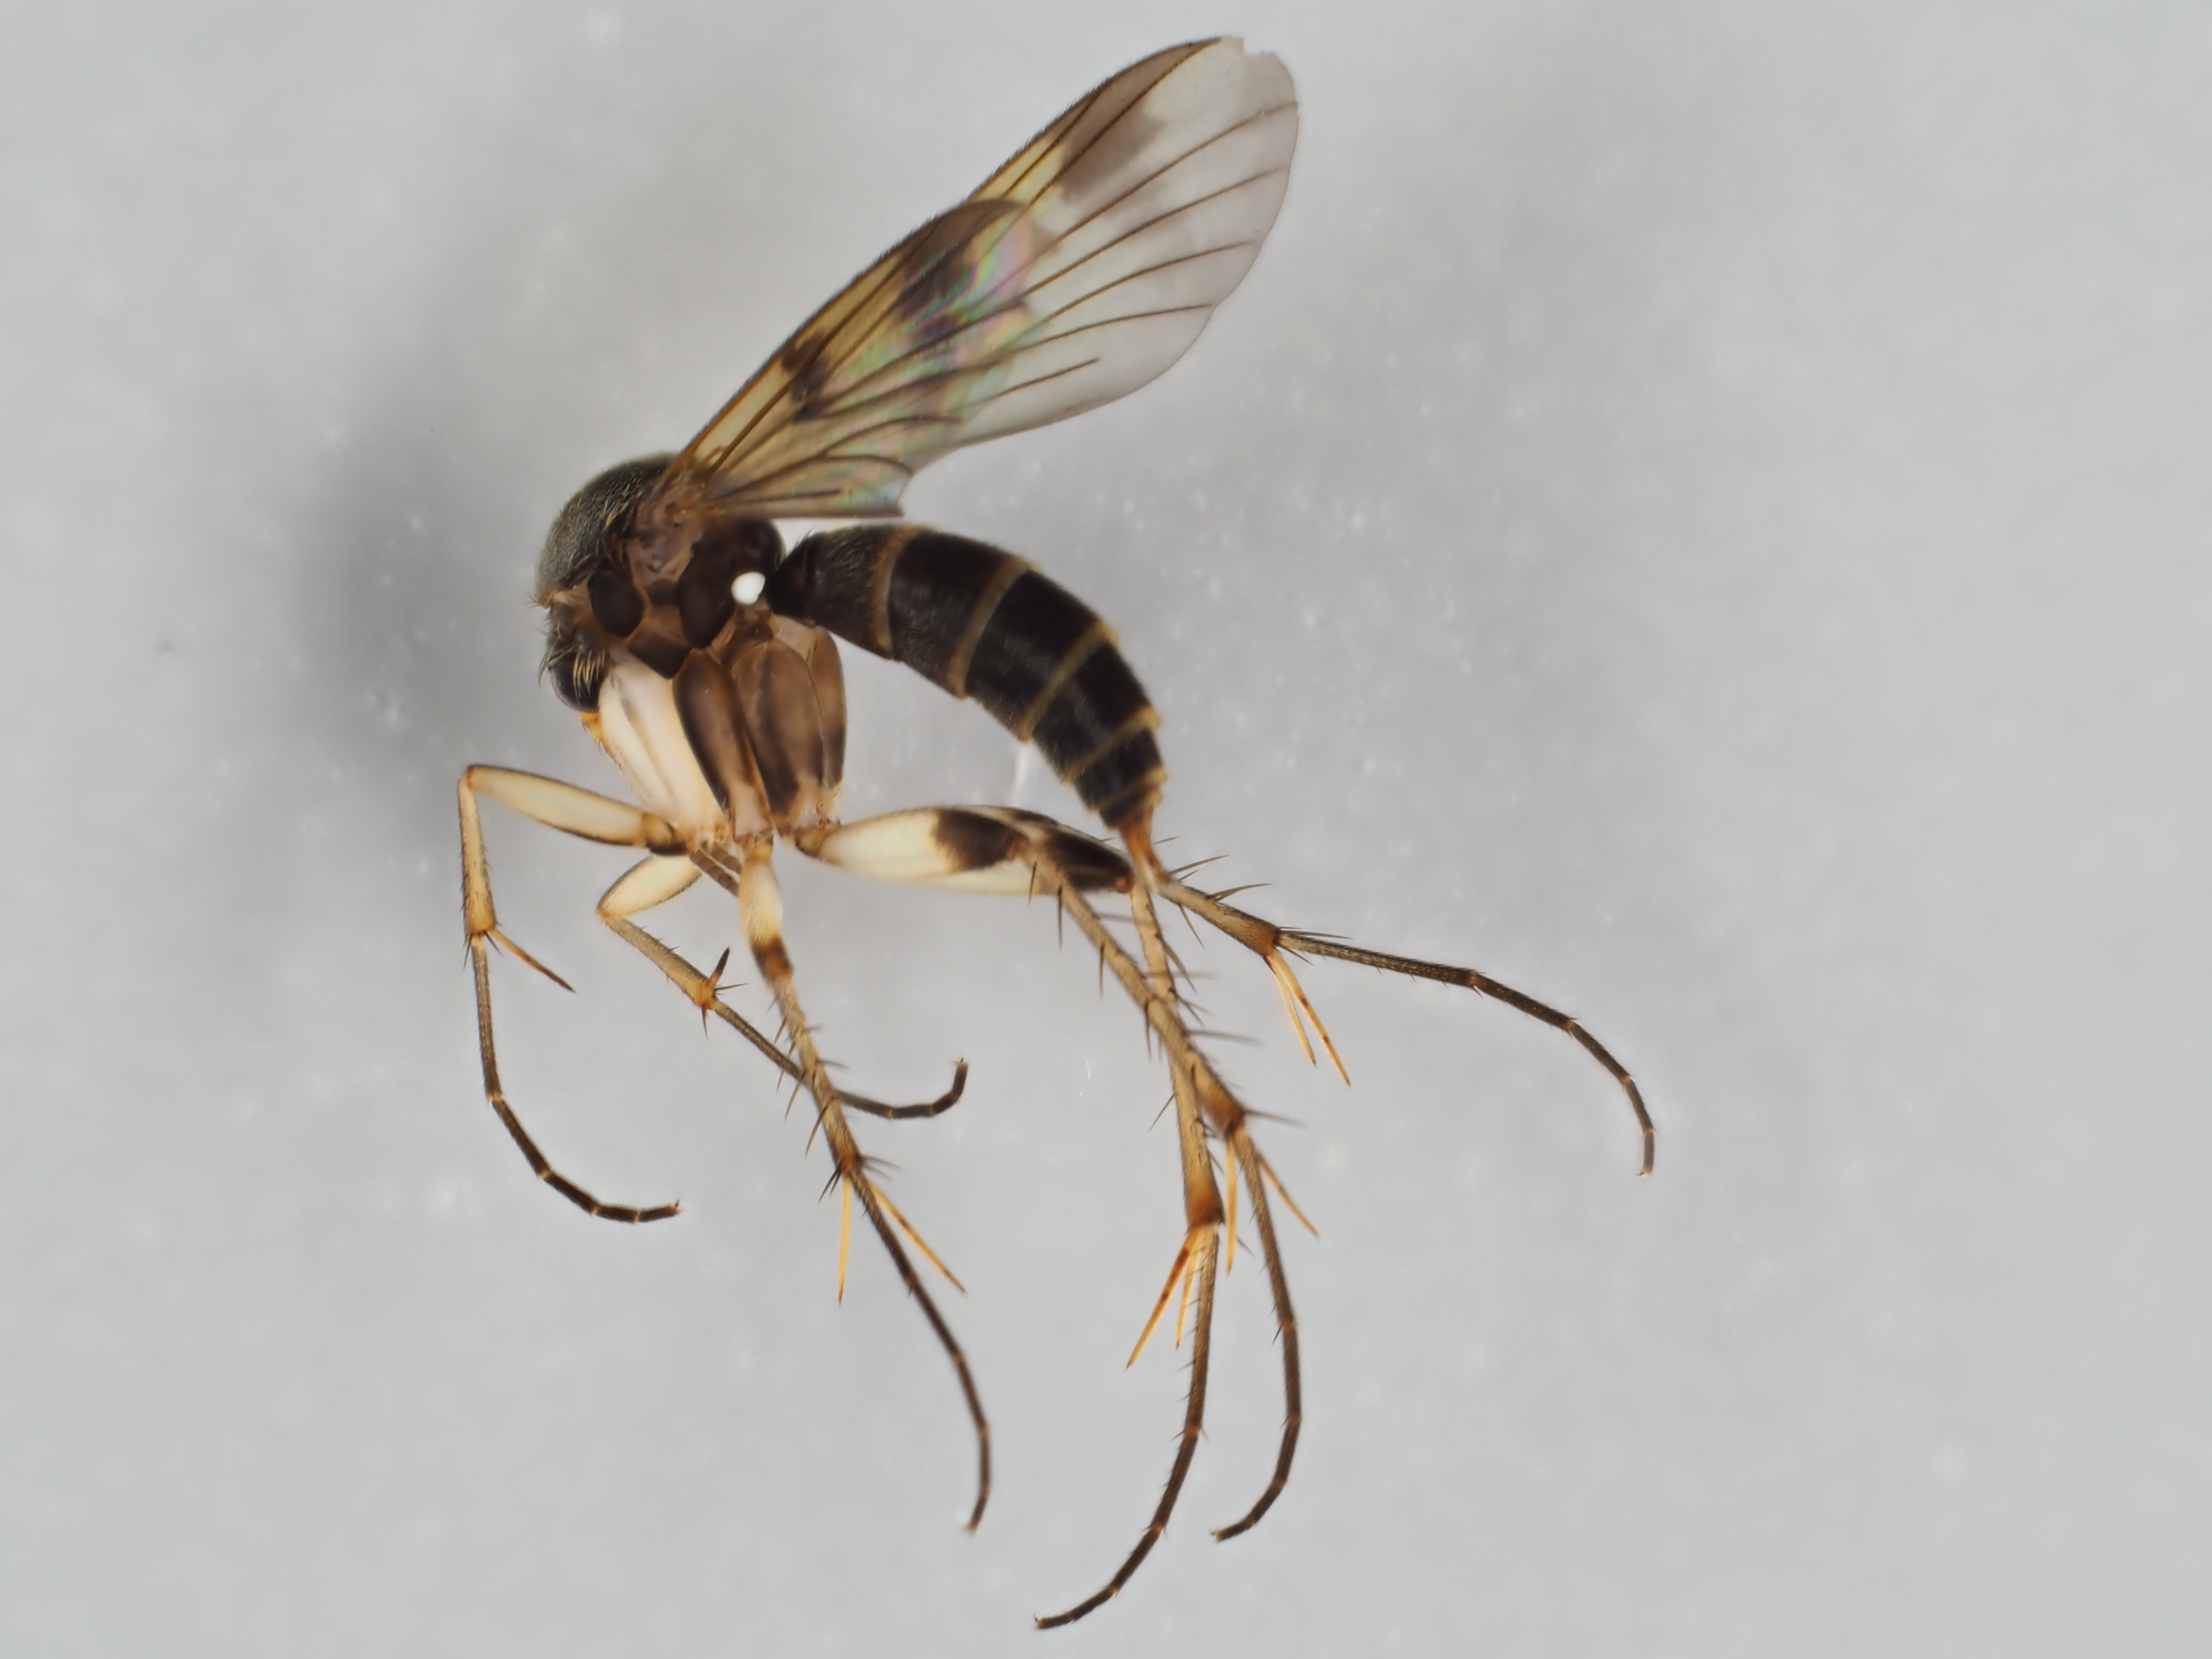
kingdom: Animalia
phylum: Arthropoda
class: Insecta
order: Diptera
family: Mycetophilidae
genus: Dynatosoma
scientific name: Dynatosoma reciprocum
